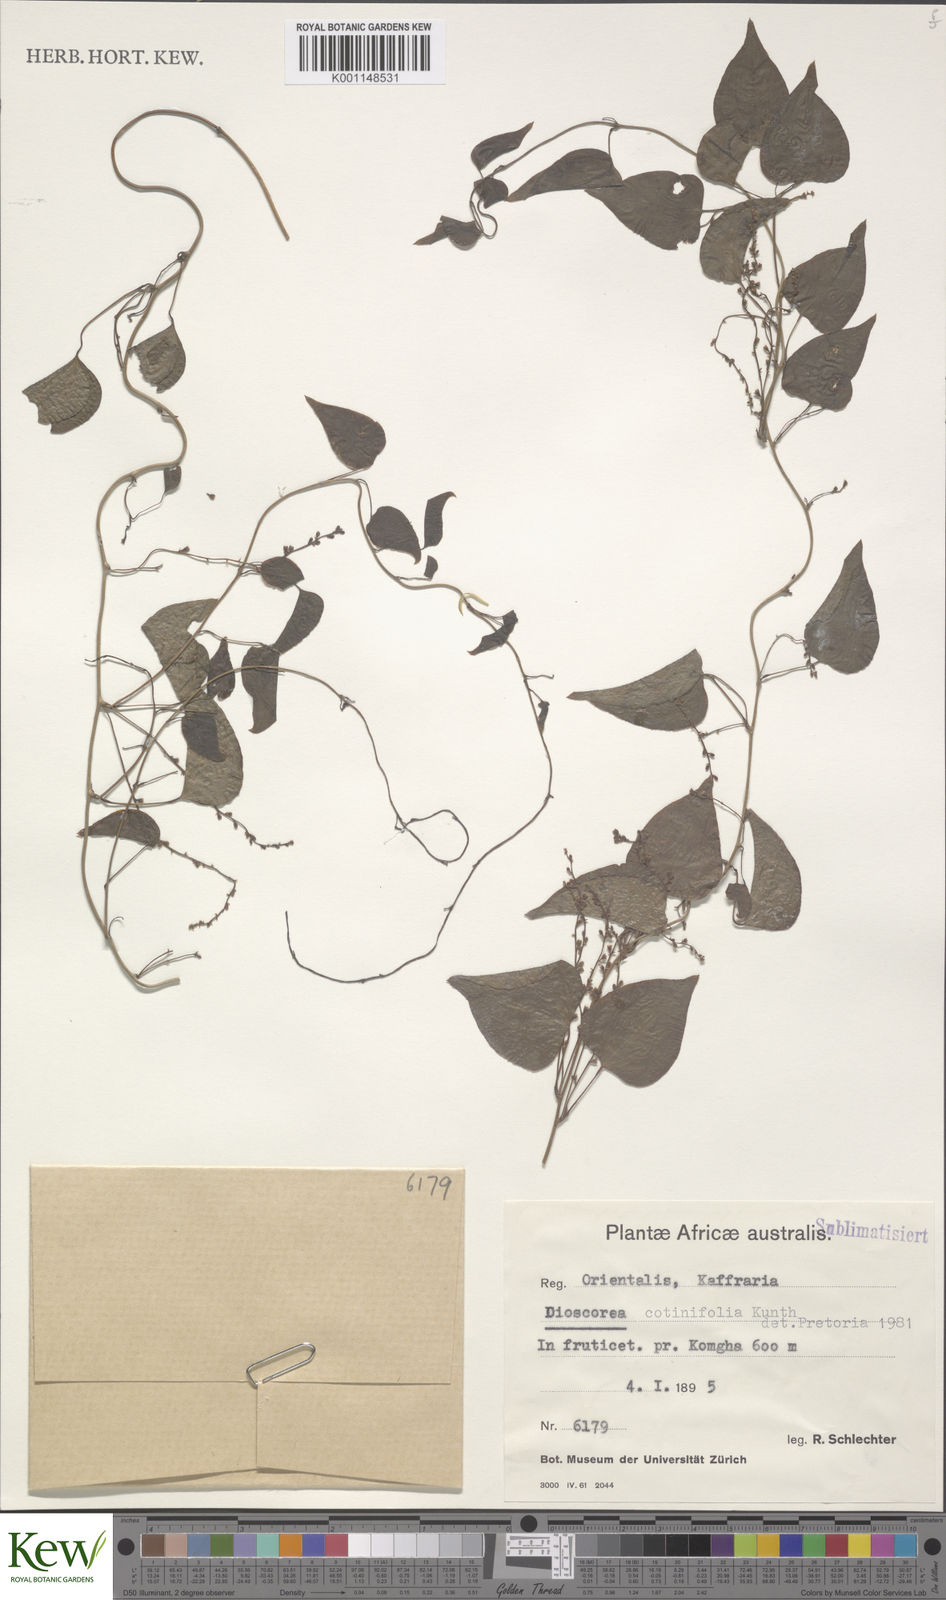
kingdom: Plantae
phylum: Tracheophyta
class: Liliopsida
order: Dioscoreales
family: Dioscoreaceae
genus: Dioscorea
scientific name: Dioscorea cotinifolia
